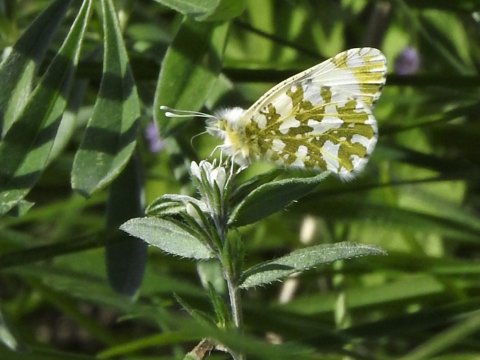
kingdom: Animalia
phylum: Arthropoda
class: Insecta
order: Lepidoptera
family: Pieridae
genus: Euchloe
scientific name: Euchloe ausonides
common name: Large Marble
